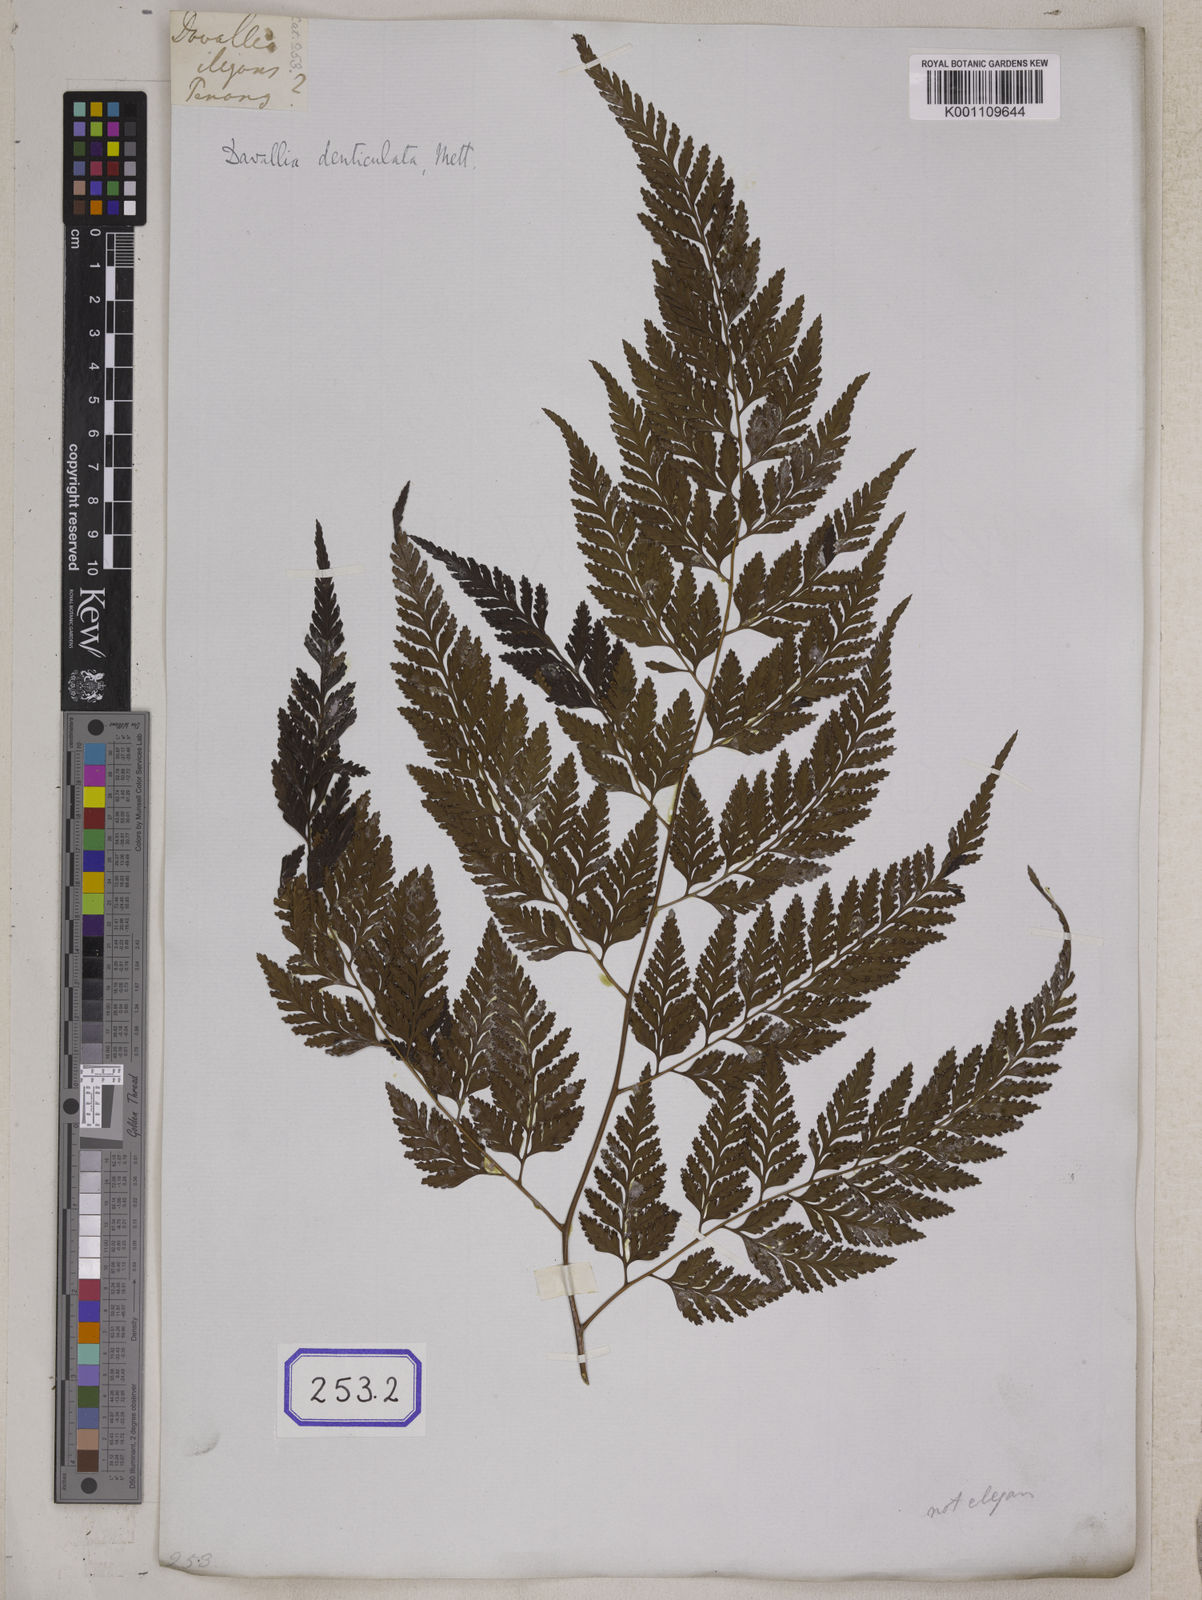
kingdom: Plantae
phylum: Tracheophyta
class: Polypodiopsida
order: Polypodiales
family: Davalliaceae
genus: Davallia
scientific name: Davallia
